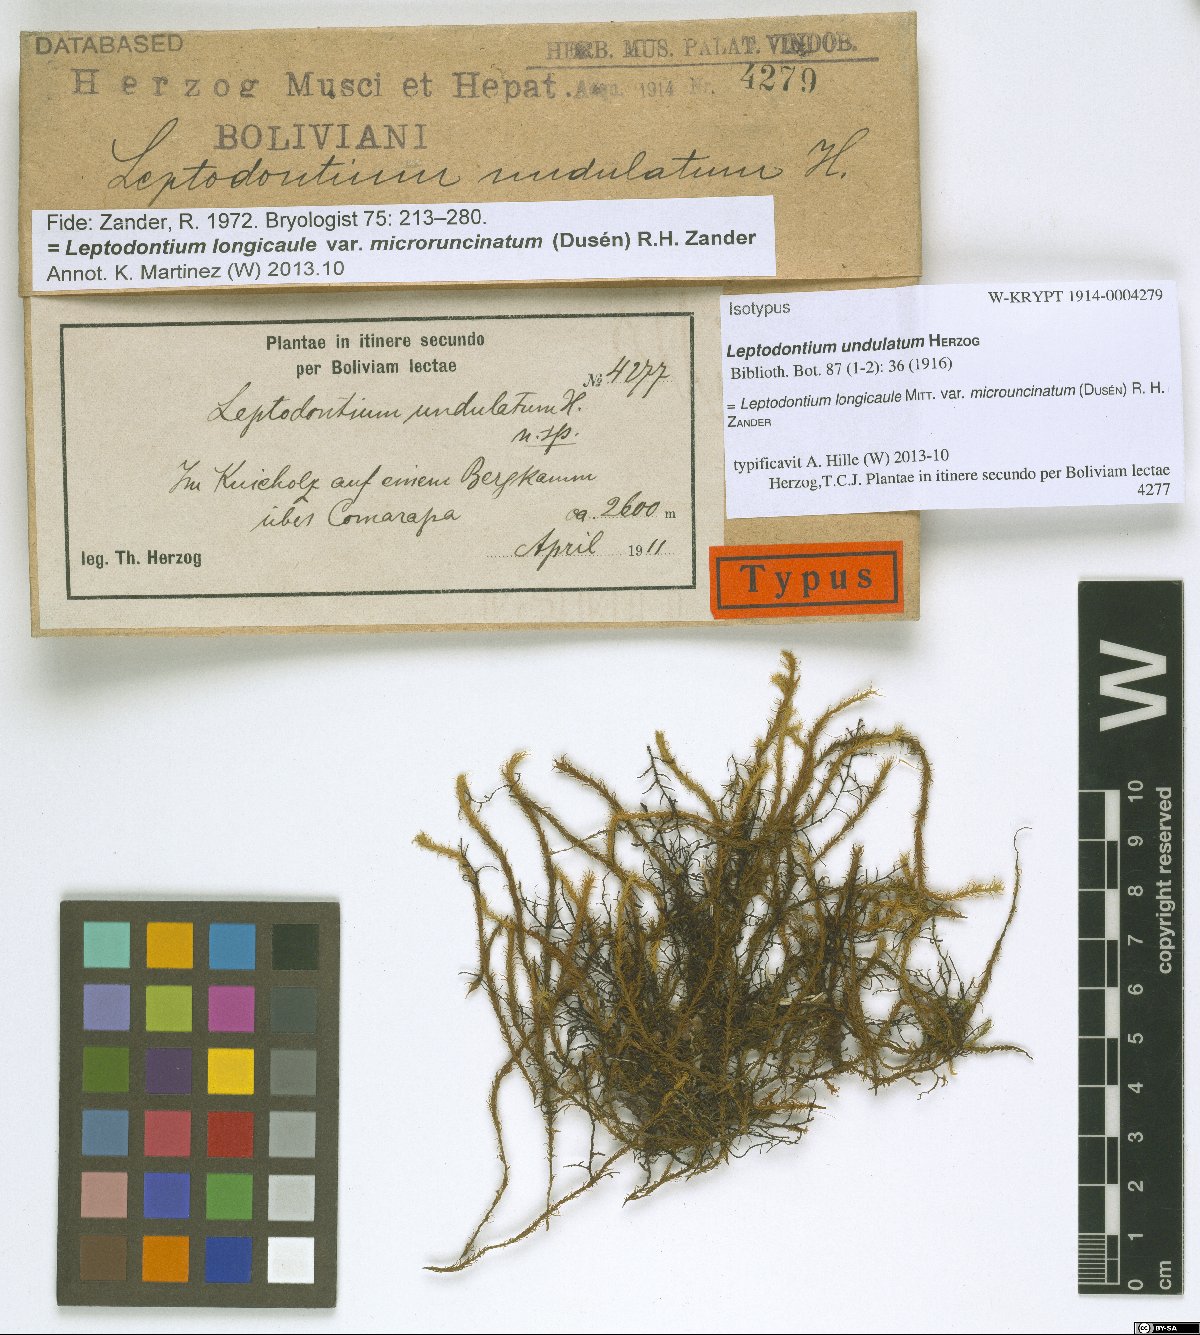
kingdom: Plantae
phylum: Bryophyta
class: Bryopsida
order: Pottiales
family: Pottiaceae
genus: Leptodontium
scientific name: Leptodontium longicaule
